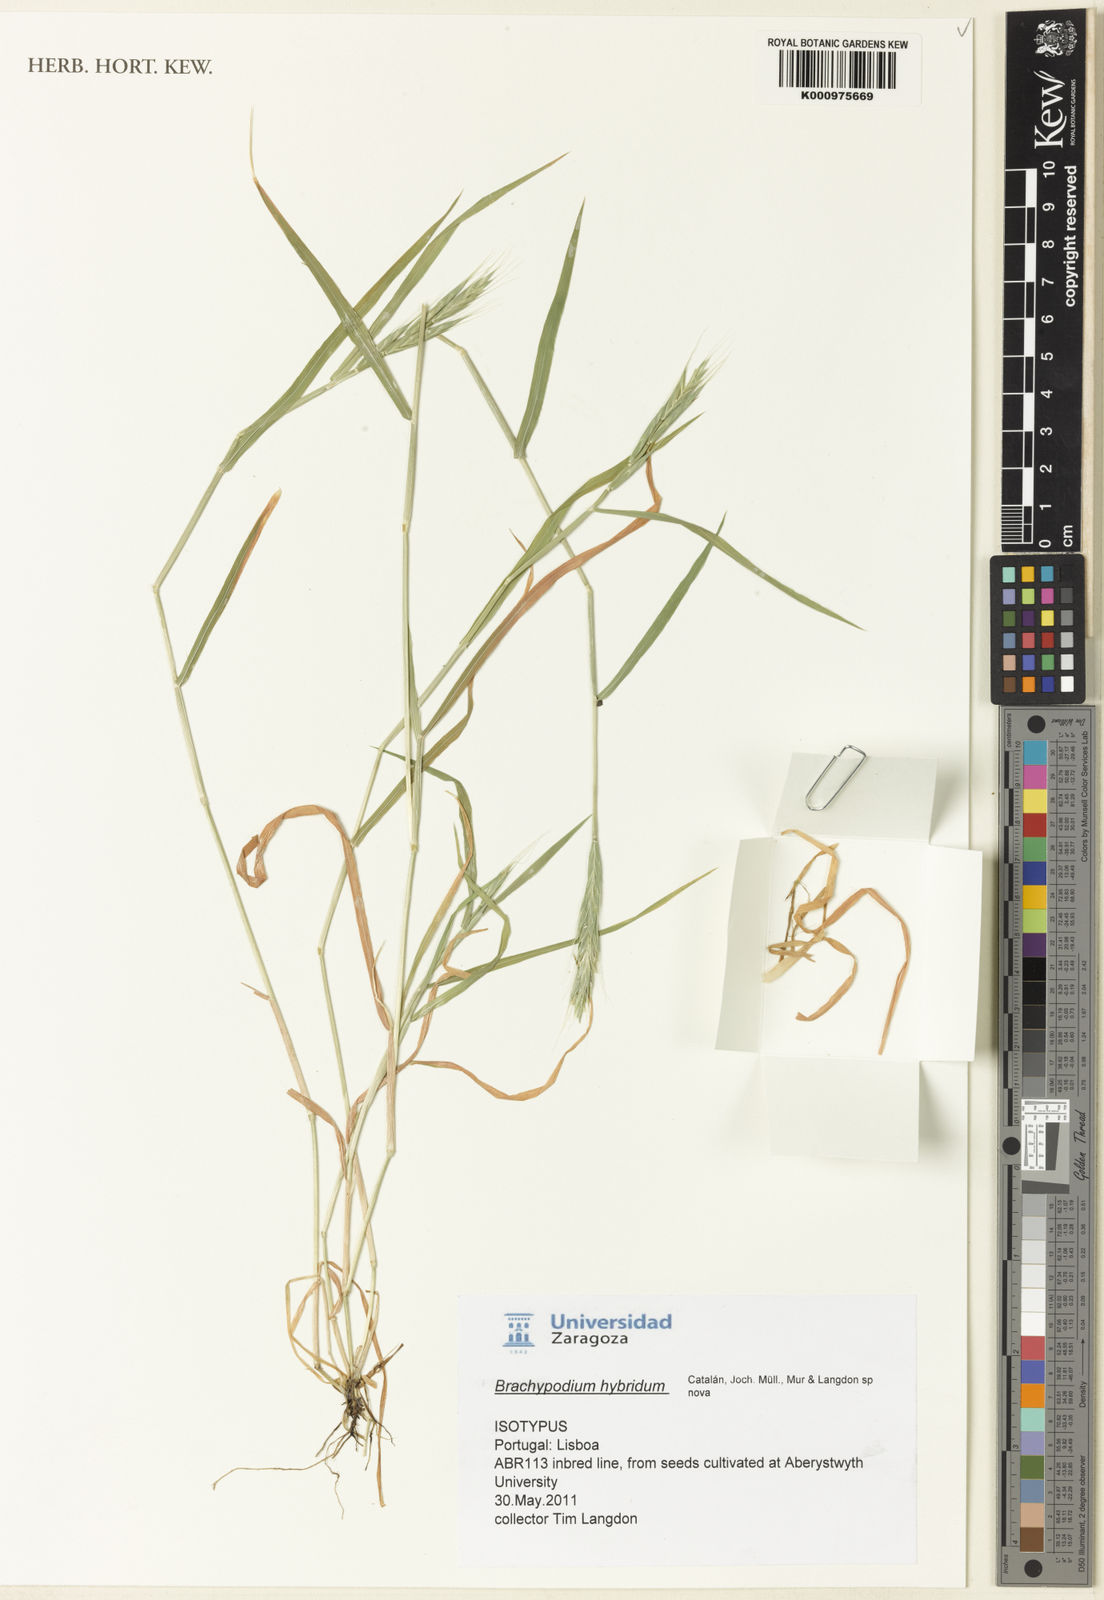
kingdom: Plantae
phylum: Tracheophyta
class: Liliopsida
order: Poales
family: Poaceae
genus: Brachypodium
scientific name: Brachypodium distachyon
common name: Stiff brome
